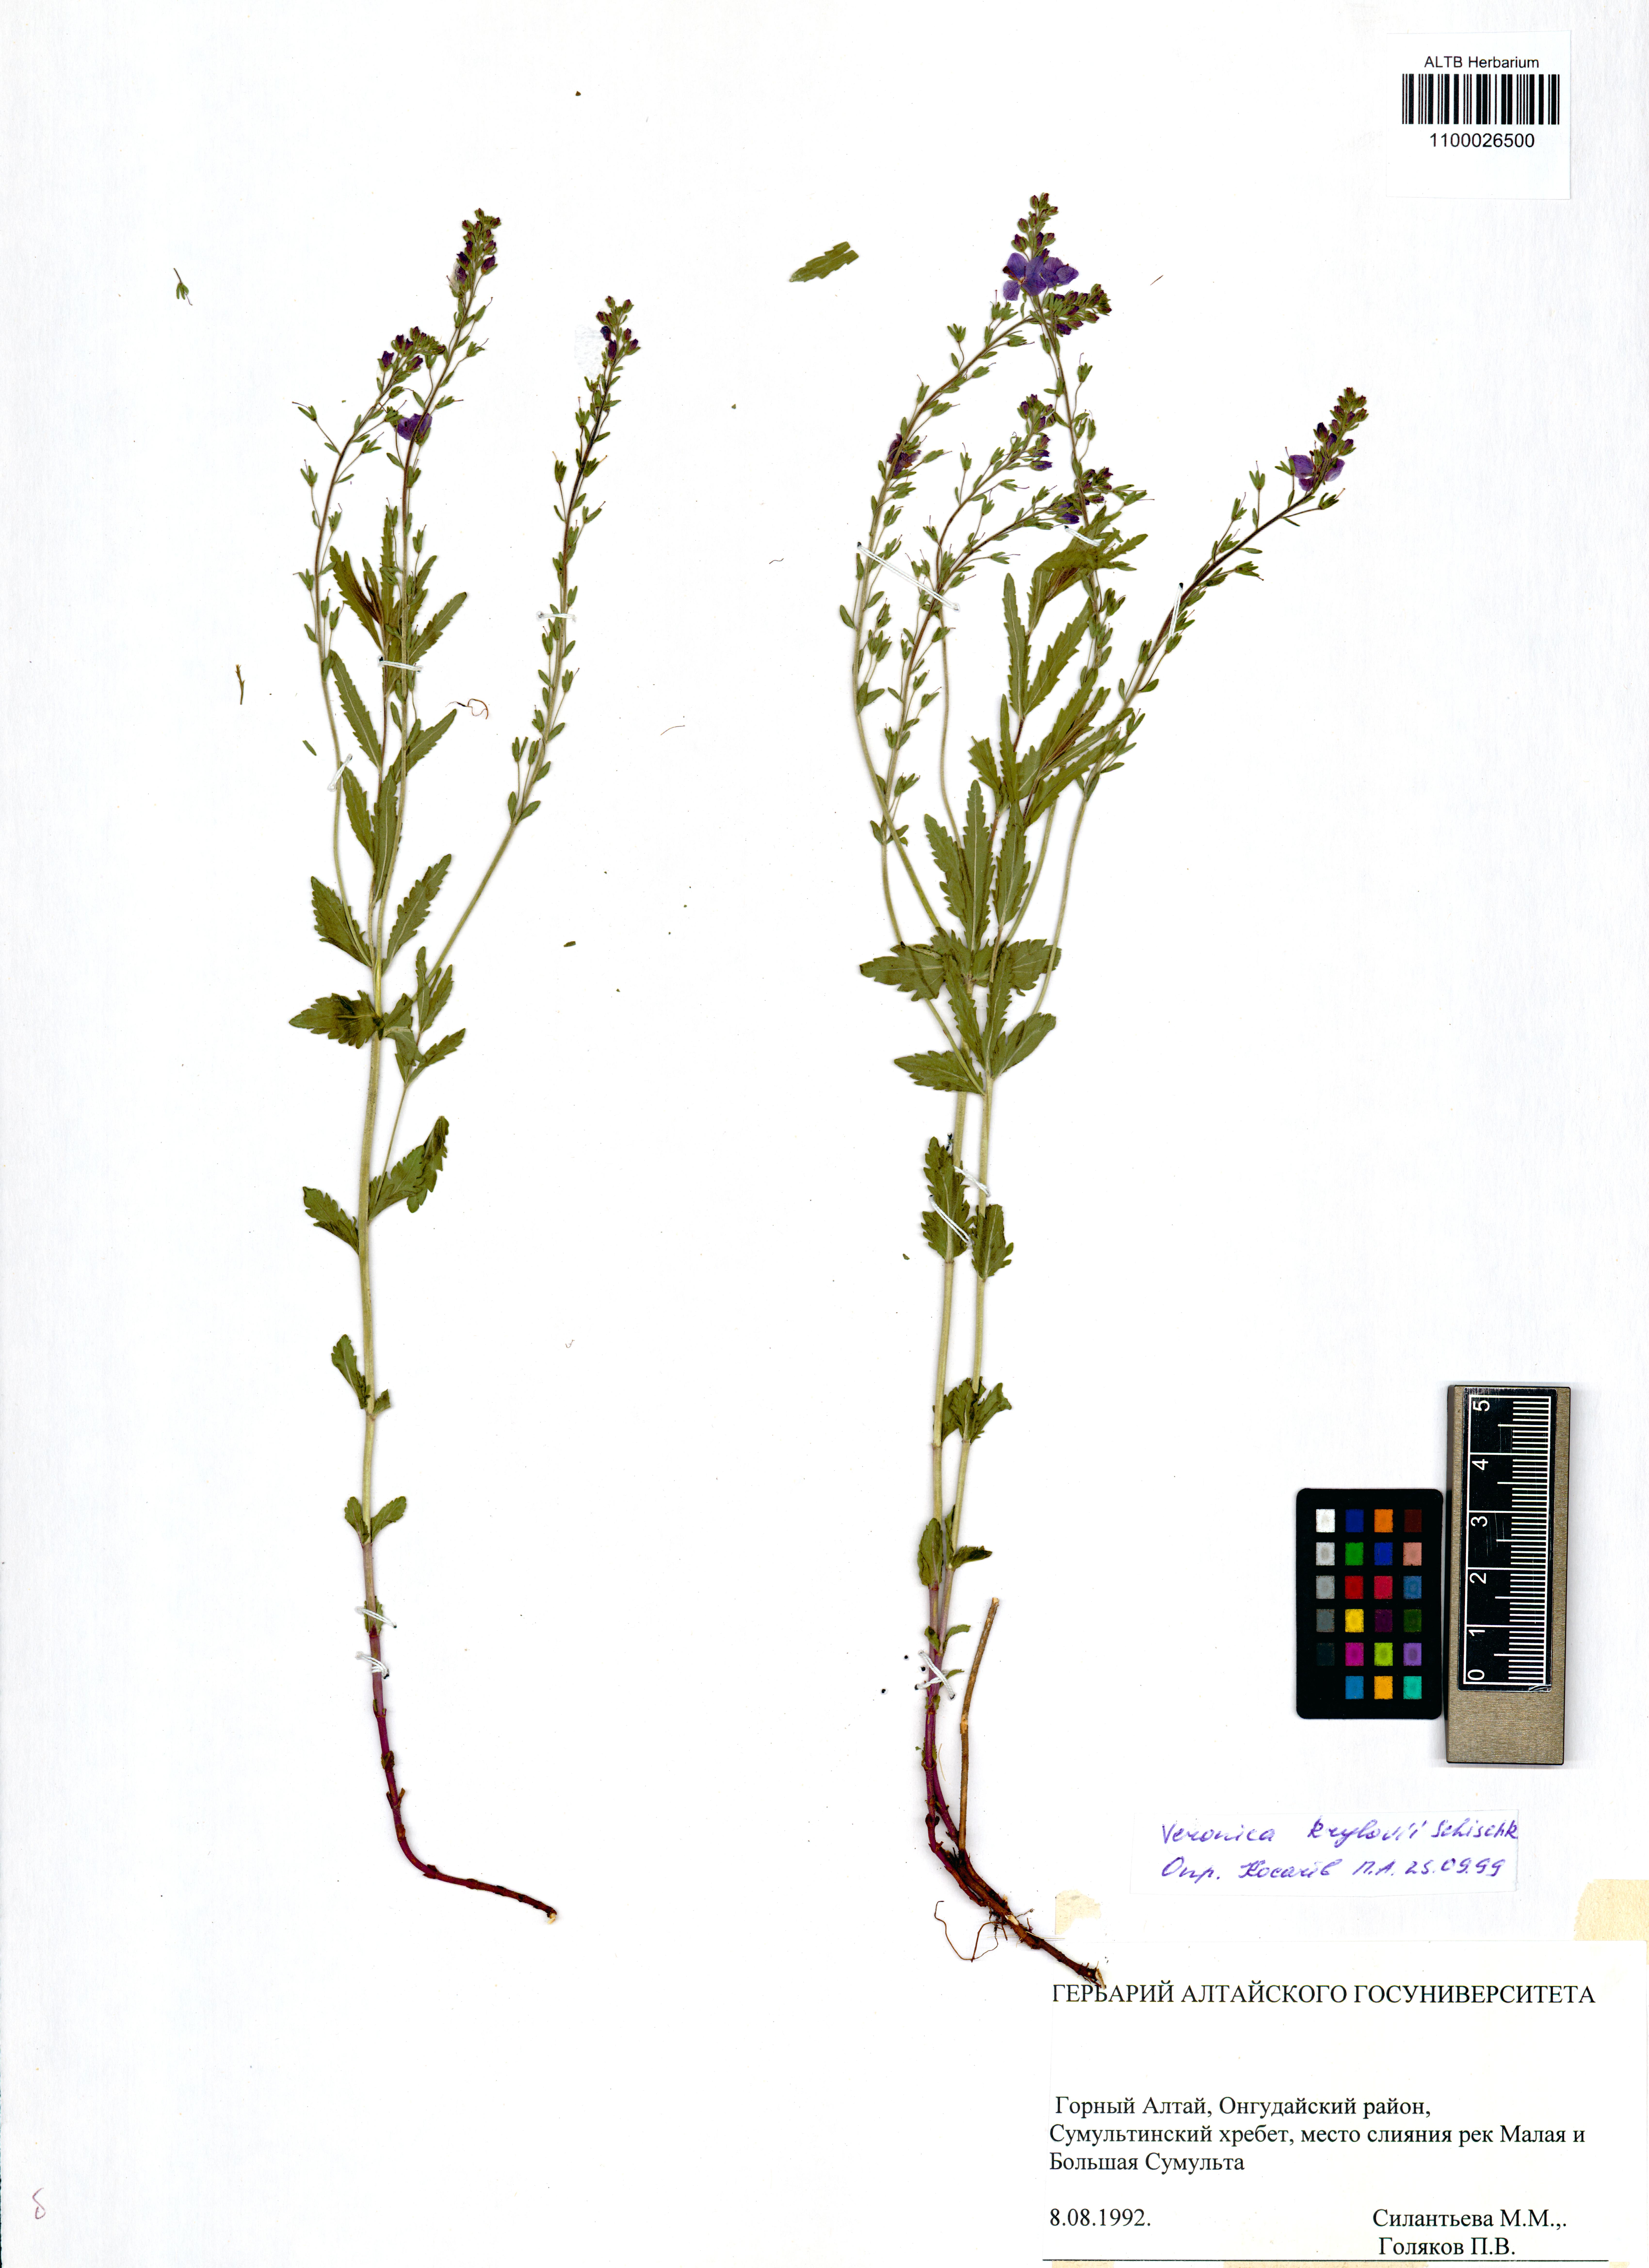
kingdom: Plantae
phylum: Tracheophyta
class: Magnoliopsida
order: Lamiales
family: Plantaginaceae
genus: Veronica
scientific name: Veronica krylovii
